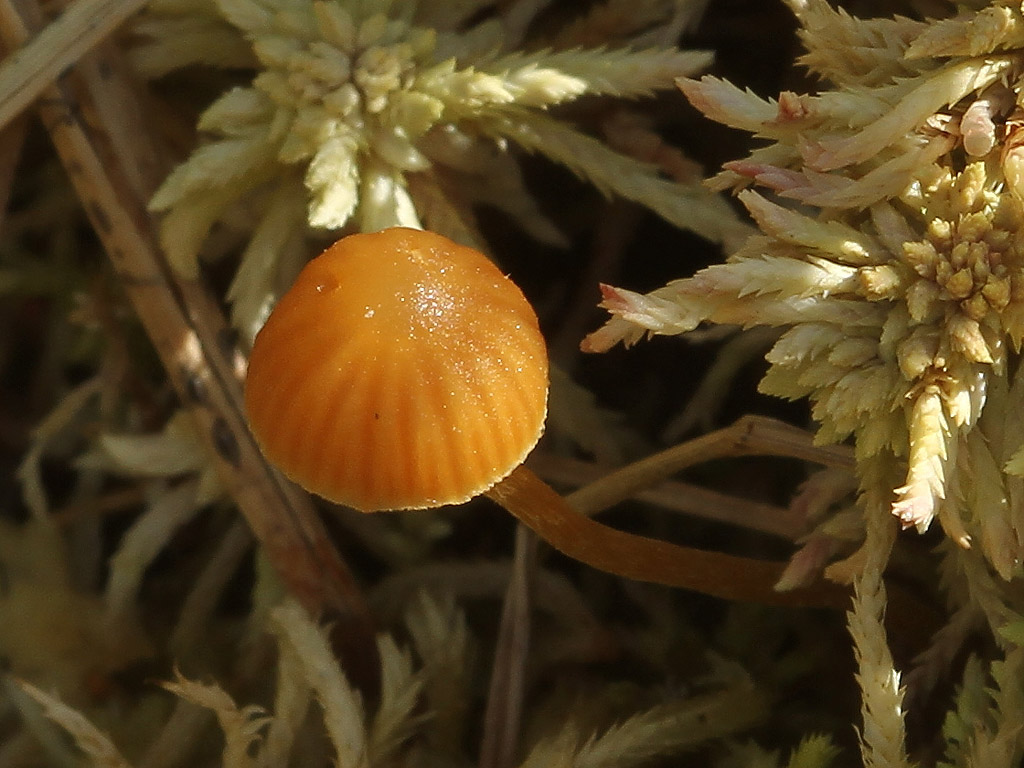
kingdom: Fungi
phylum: Basidiomycota
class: Agaricomycetes
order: Agaricales
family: Hymenogastraceae
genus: Galerina
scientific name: Galerina sphagnicola
